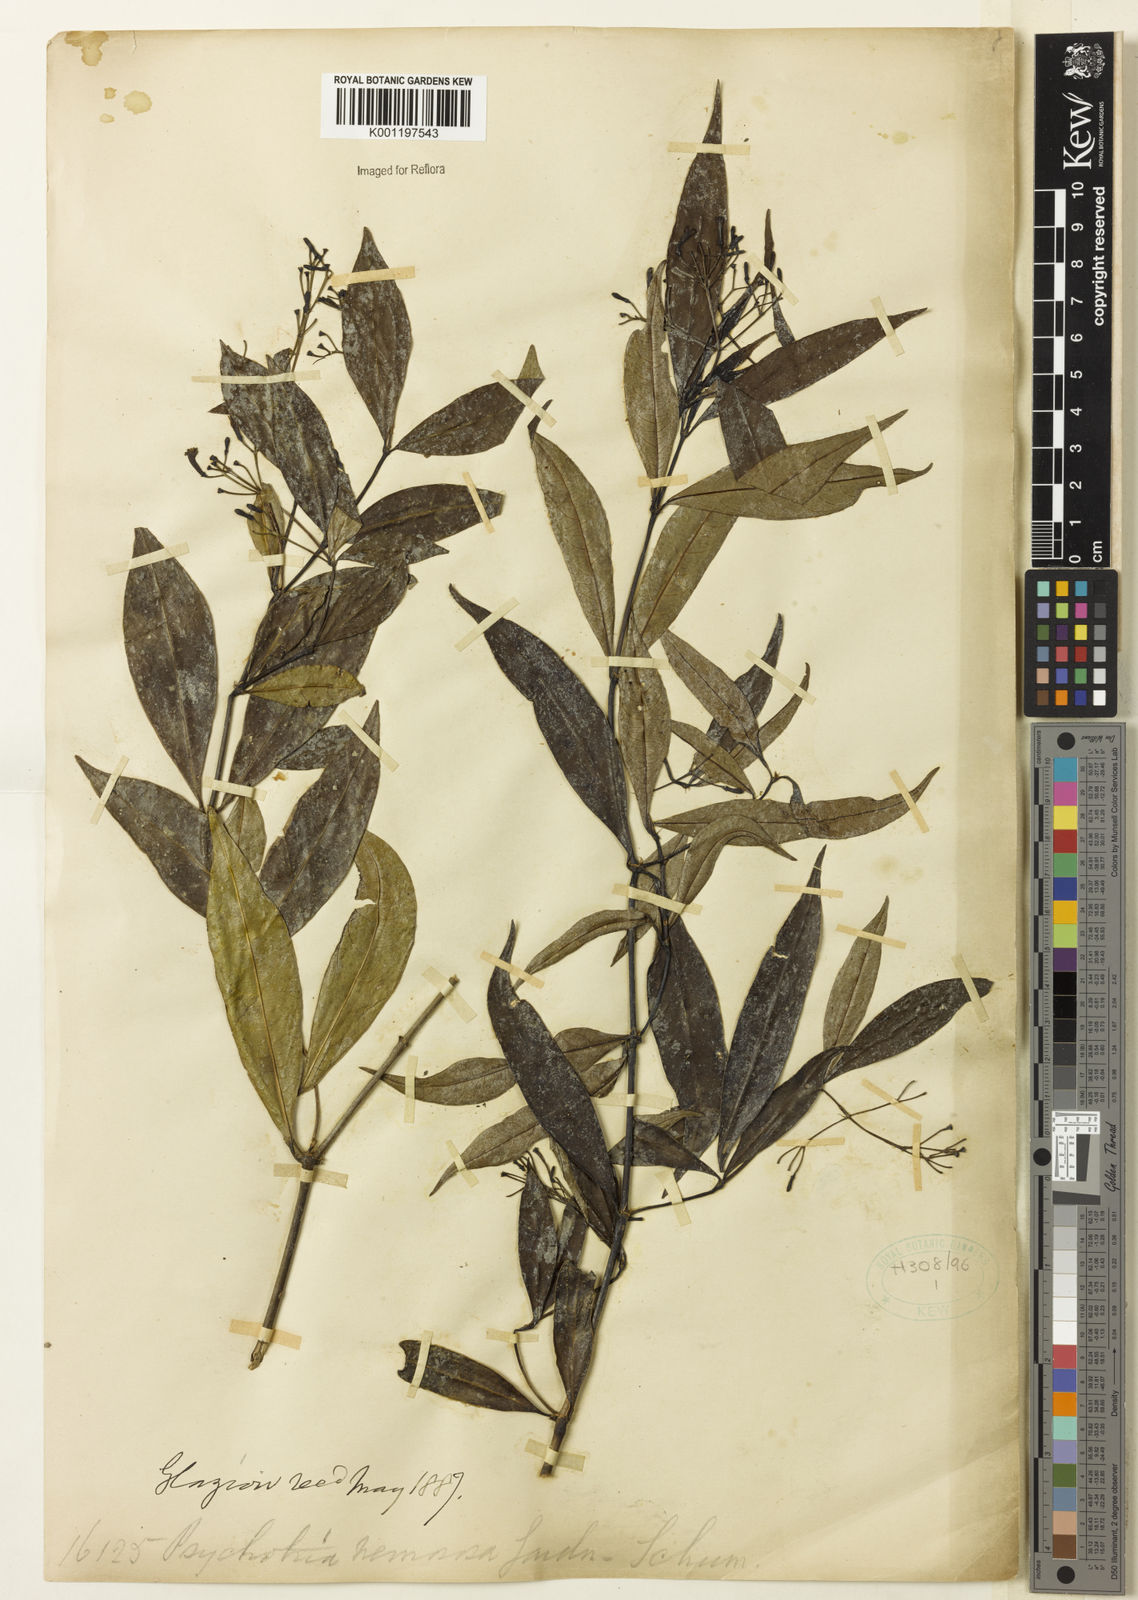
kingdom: Plantae
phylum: Tracheophyta
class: Magnoliopsida
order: Gentianales
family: Rubiaceae
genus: Psychotria
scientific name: Psychotria nemorosa
